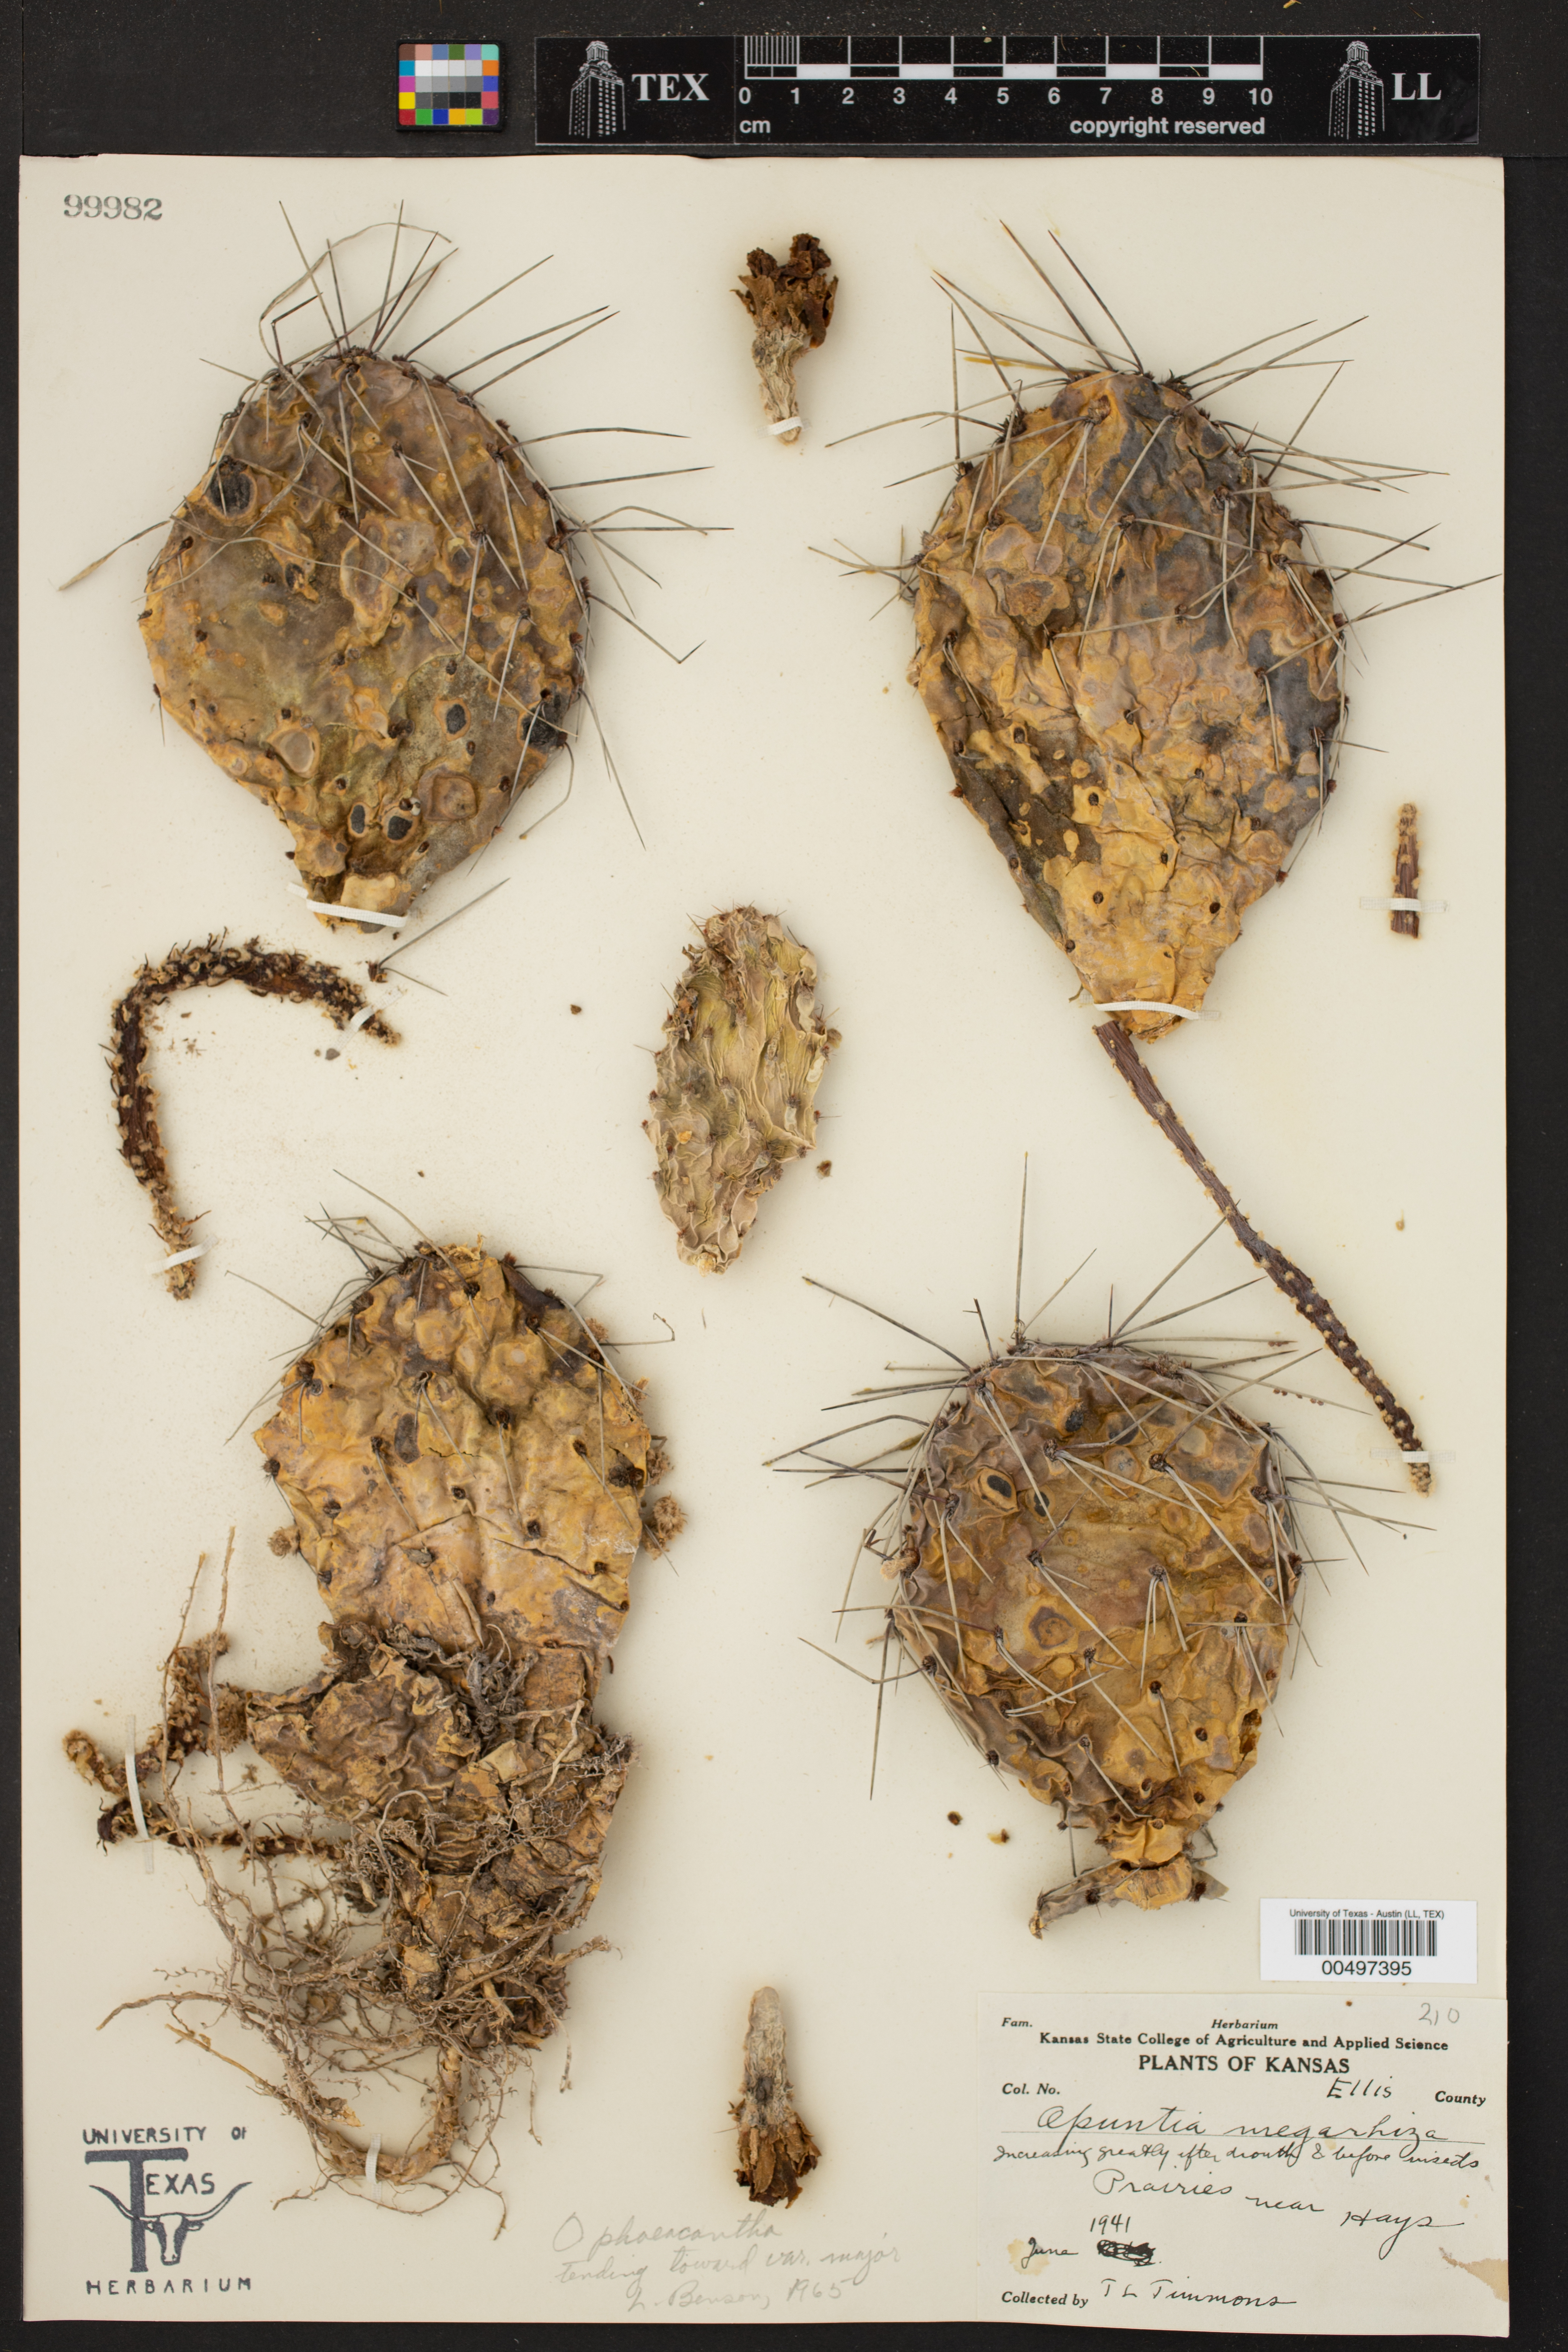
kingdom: Plantae
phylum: Tracheophyta
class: Magnoliopsida
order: Caryophyllales
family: Cactaceae
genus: Opuntia
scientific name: Opuntia phaeacantha
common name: New mexico prickly-pear
